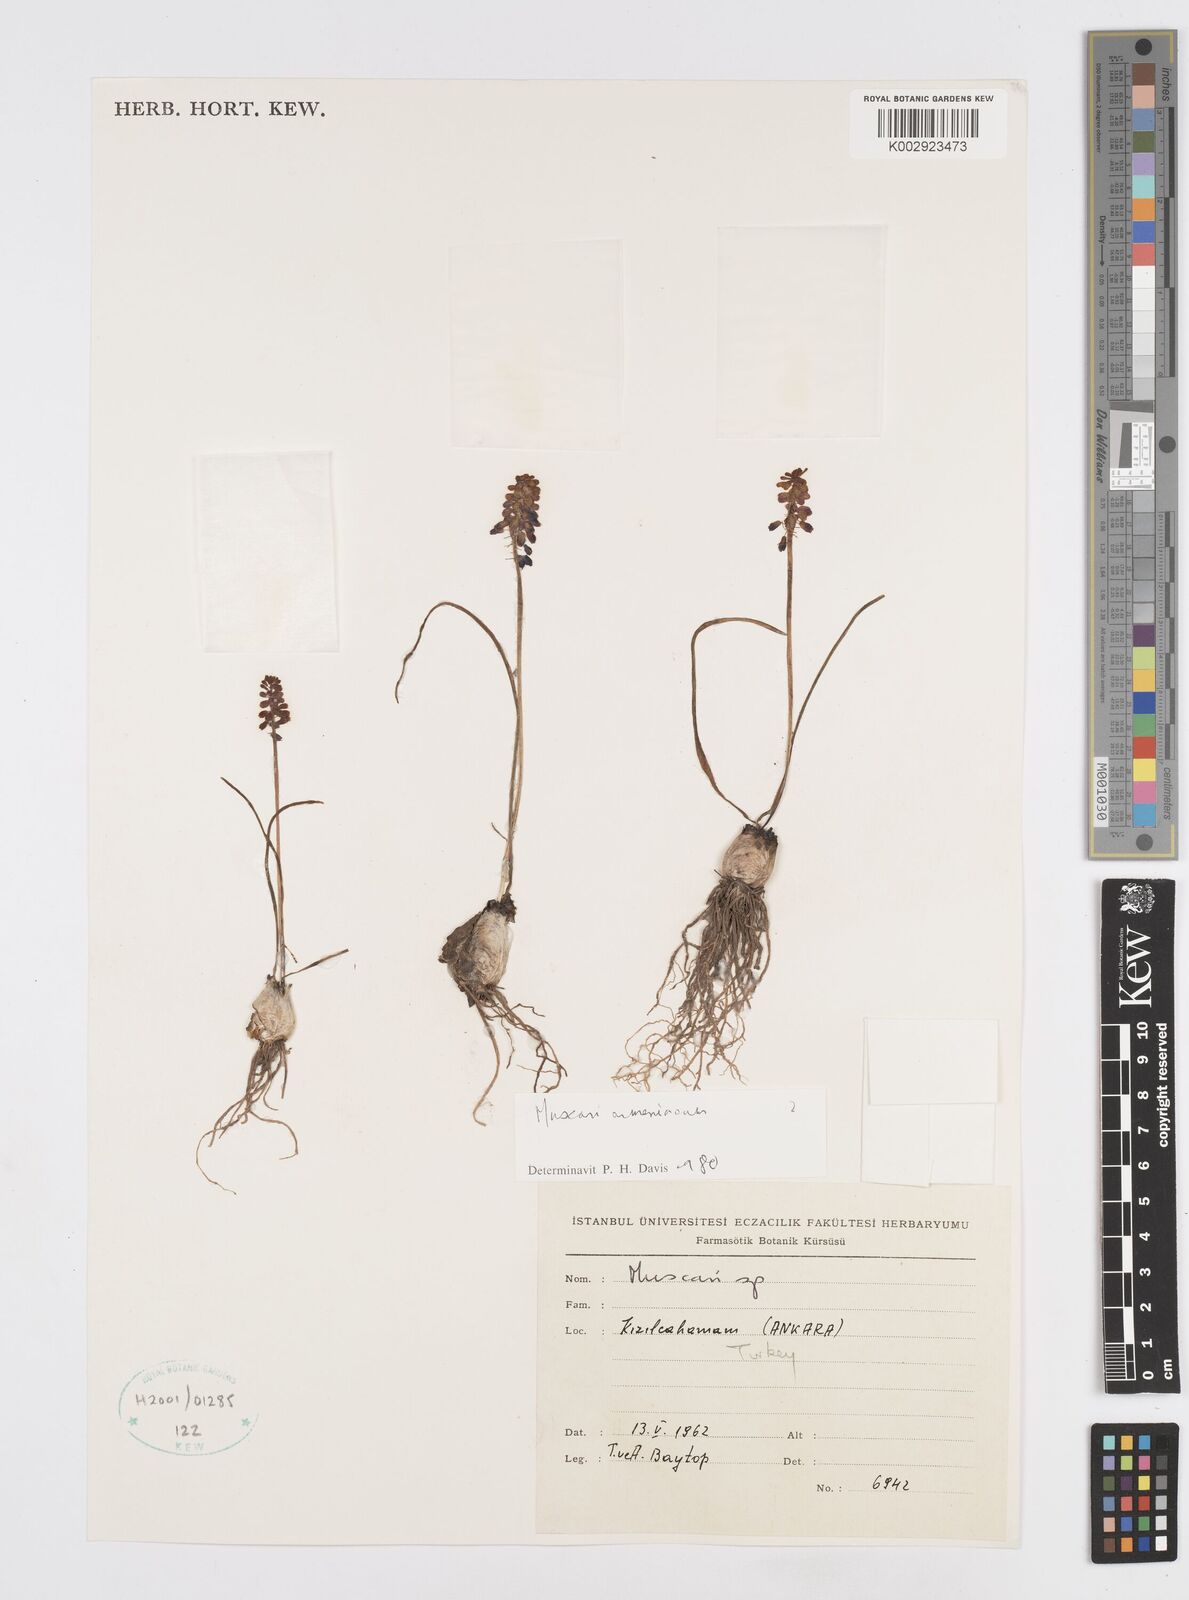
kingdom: Plantae
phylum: Tracheophyta
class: Liliopsida
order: Asparagales
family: Asparagaceae
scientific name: Asparagaceae
